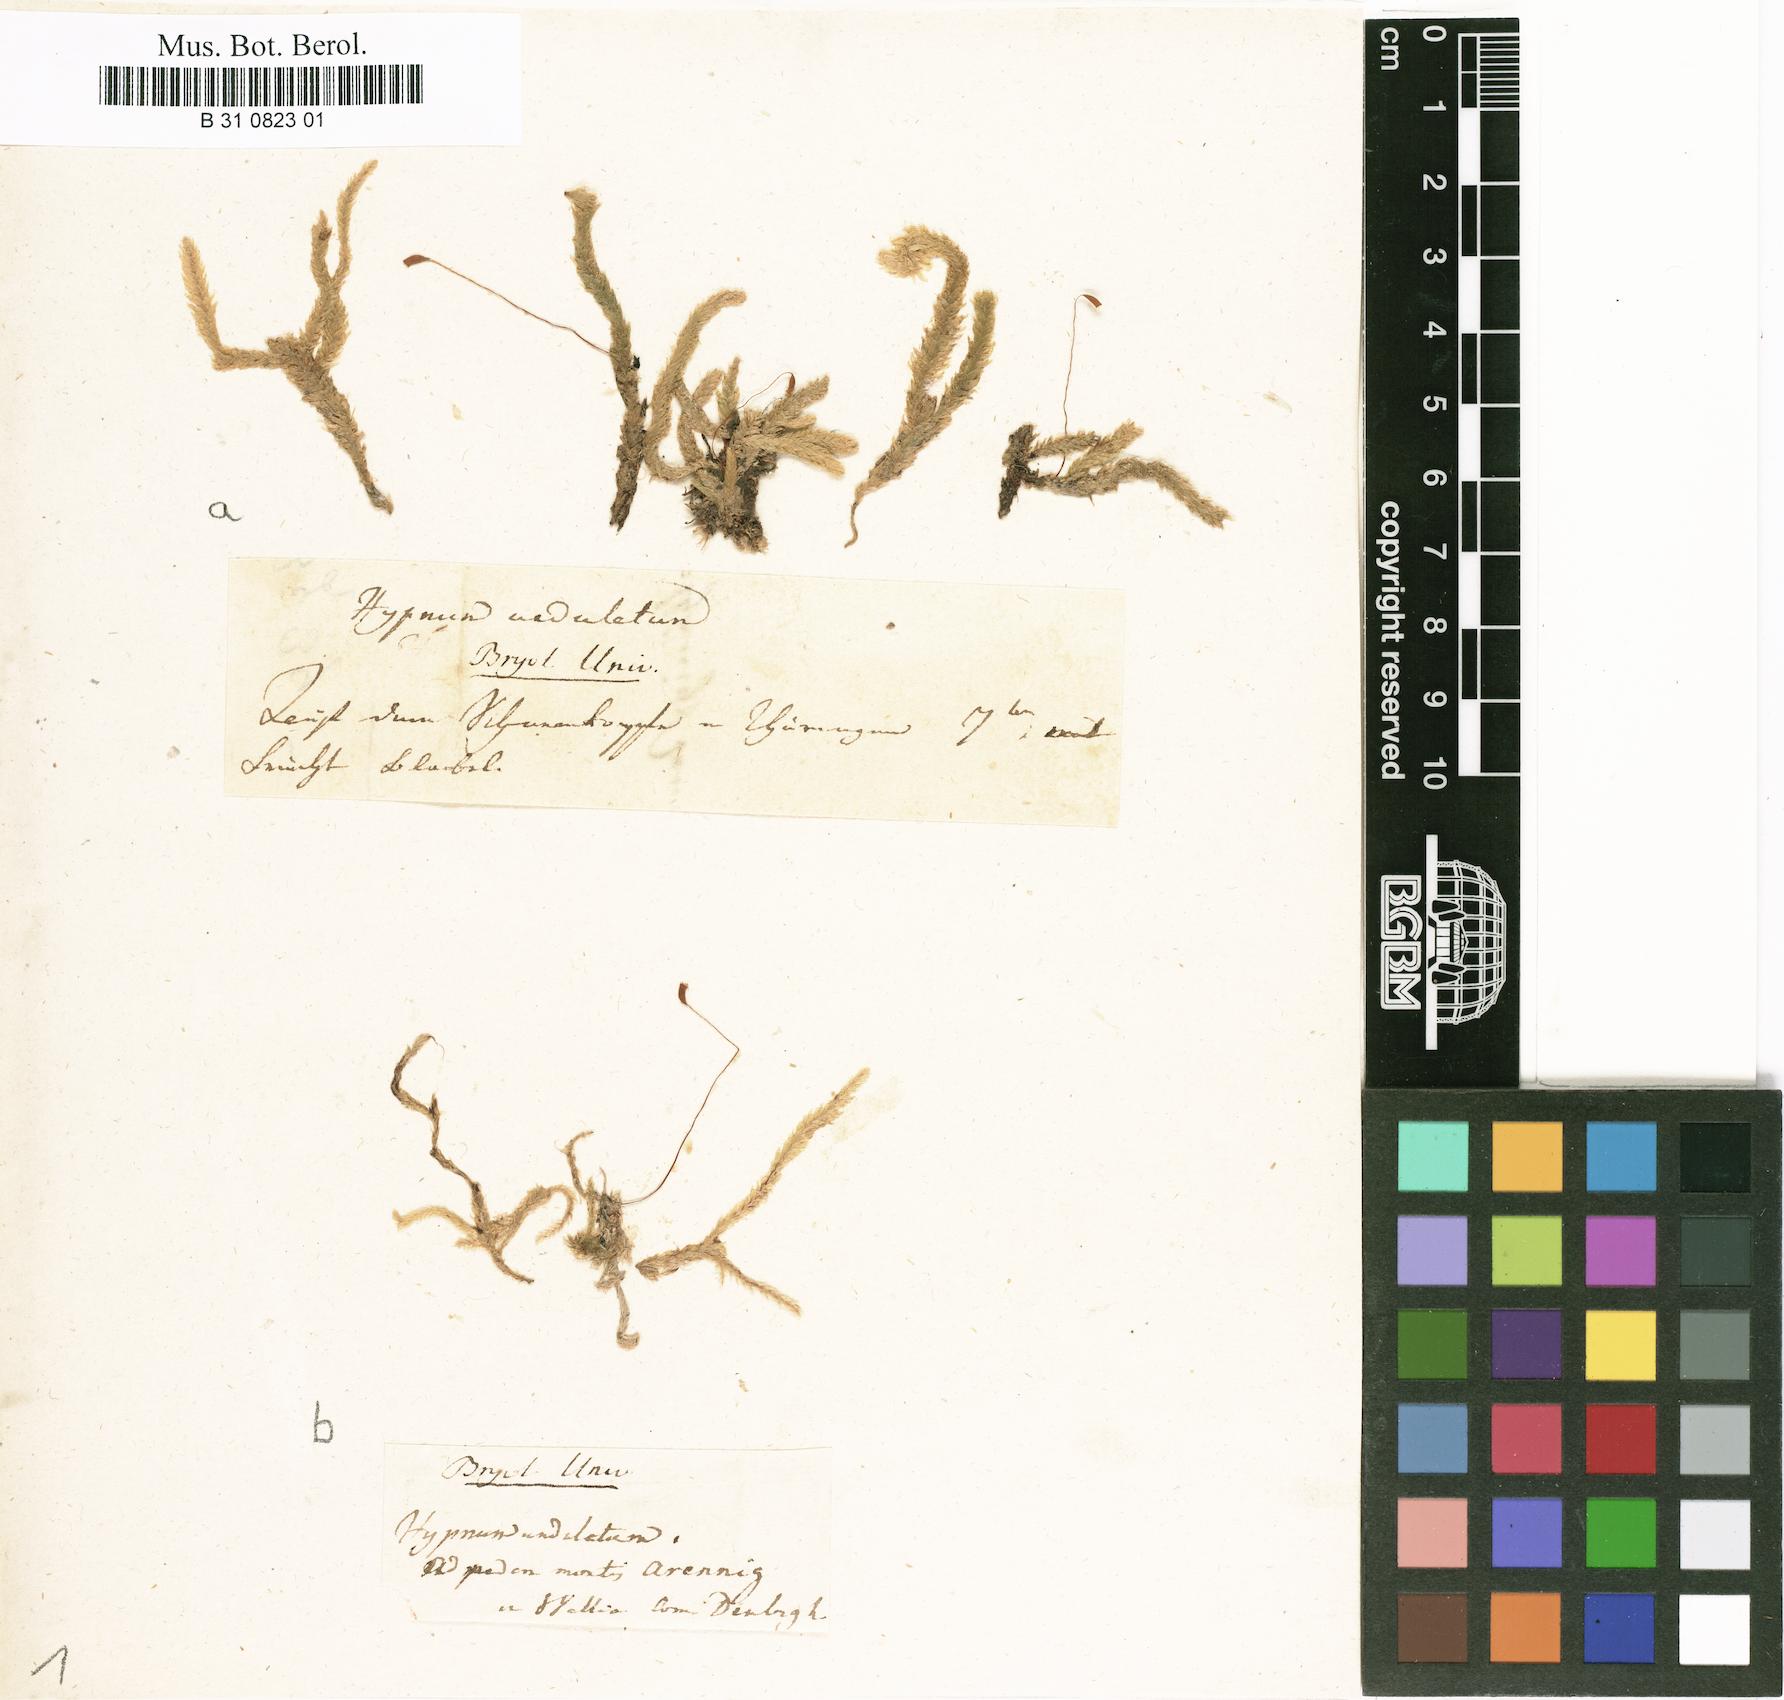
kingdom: Plantae
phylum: Bryophyta
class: Bryopsida
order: Hypnales
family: Plagiotheciaceae
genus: Plagiothecium
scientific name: Plagiothecium undulatum
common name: Waved silk-moss
